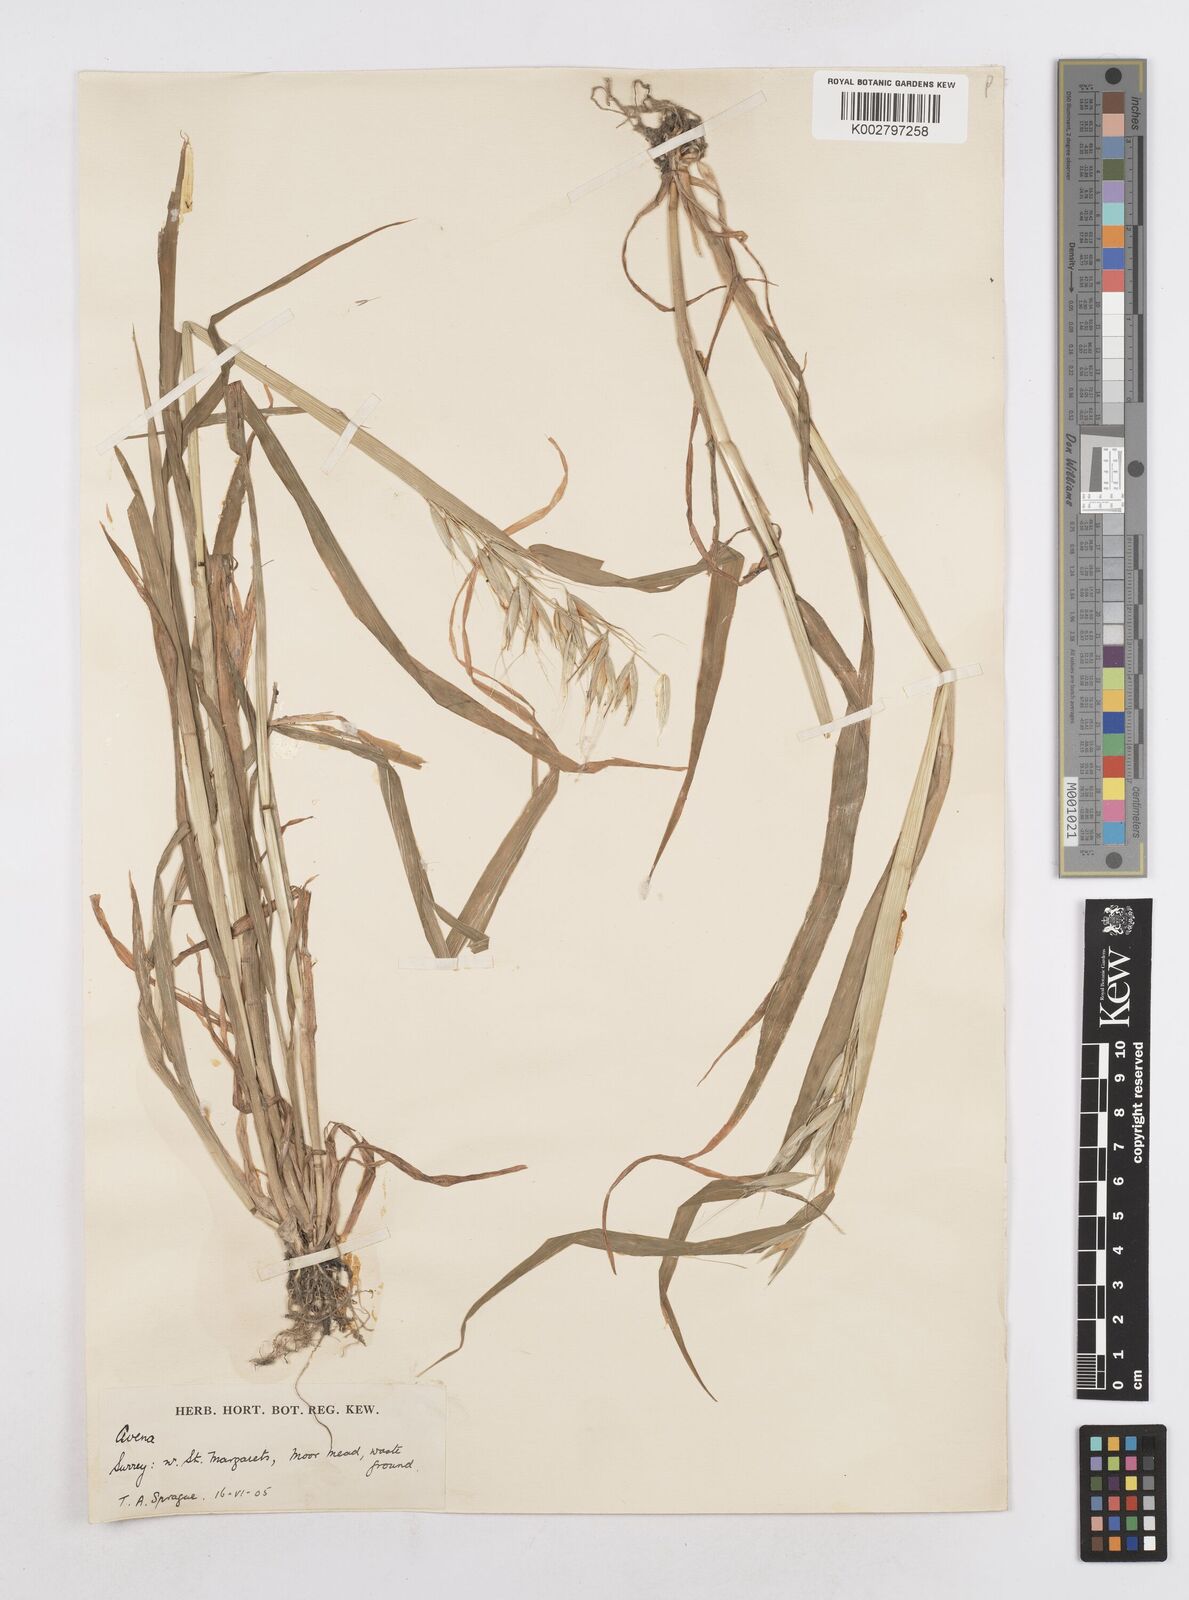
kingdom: Plantae
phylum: Tracheophyta
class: Liliopsida
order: Poales
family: Poaceae
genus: Avena
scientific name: Avena fatua
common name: Wild oat
